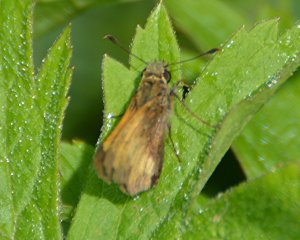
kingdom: Animalia
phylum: Arthropoda
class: Insecta
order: Lepidoptera
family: Hesperiidae
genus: Lon
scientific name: Lon hobomok
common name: Hobomok Skipper
